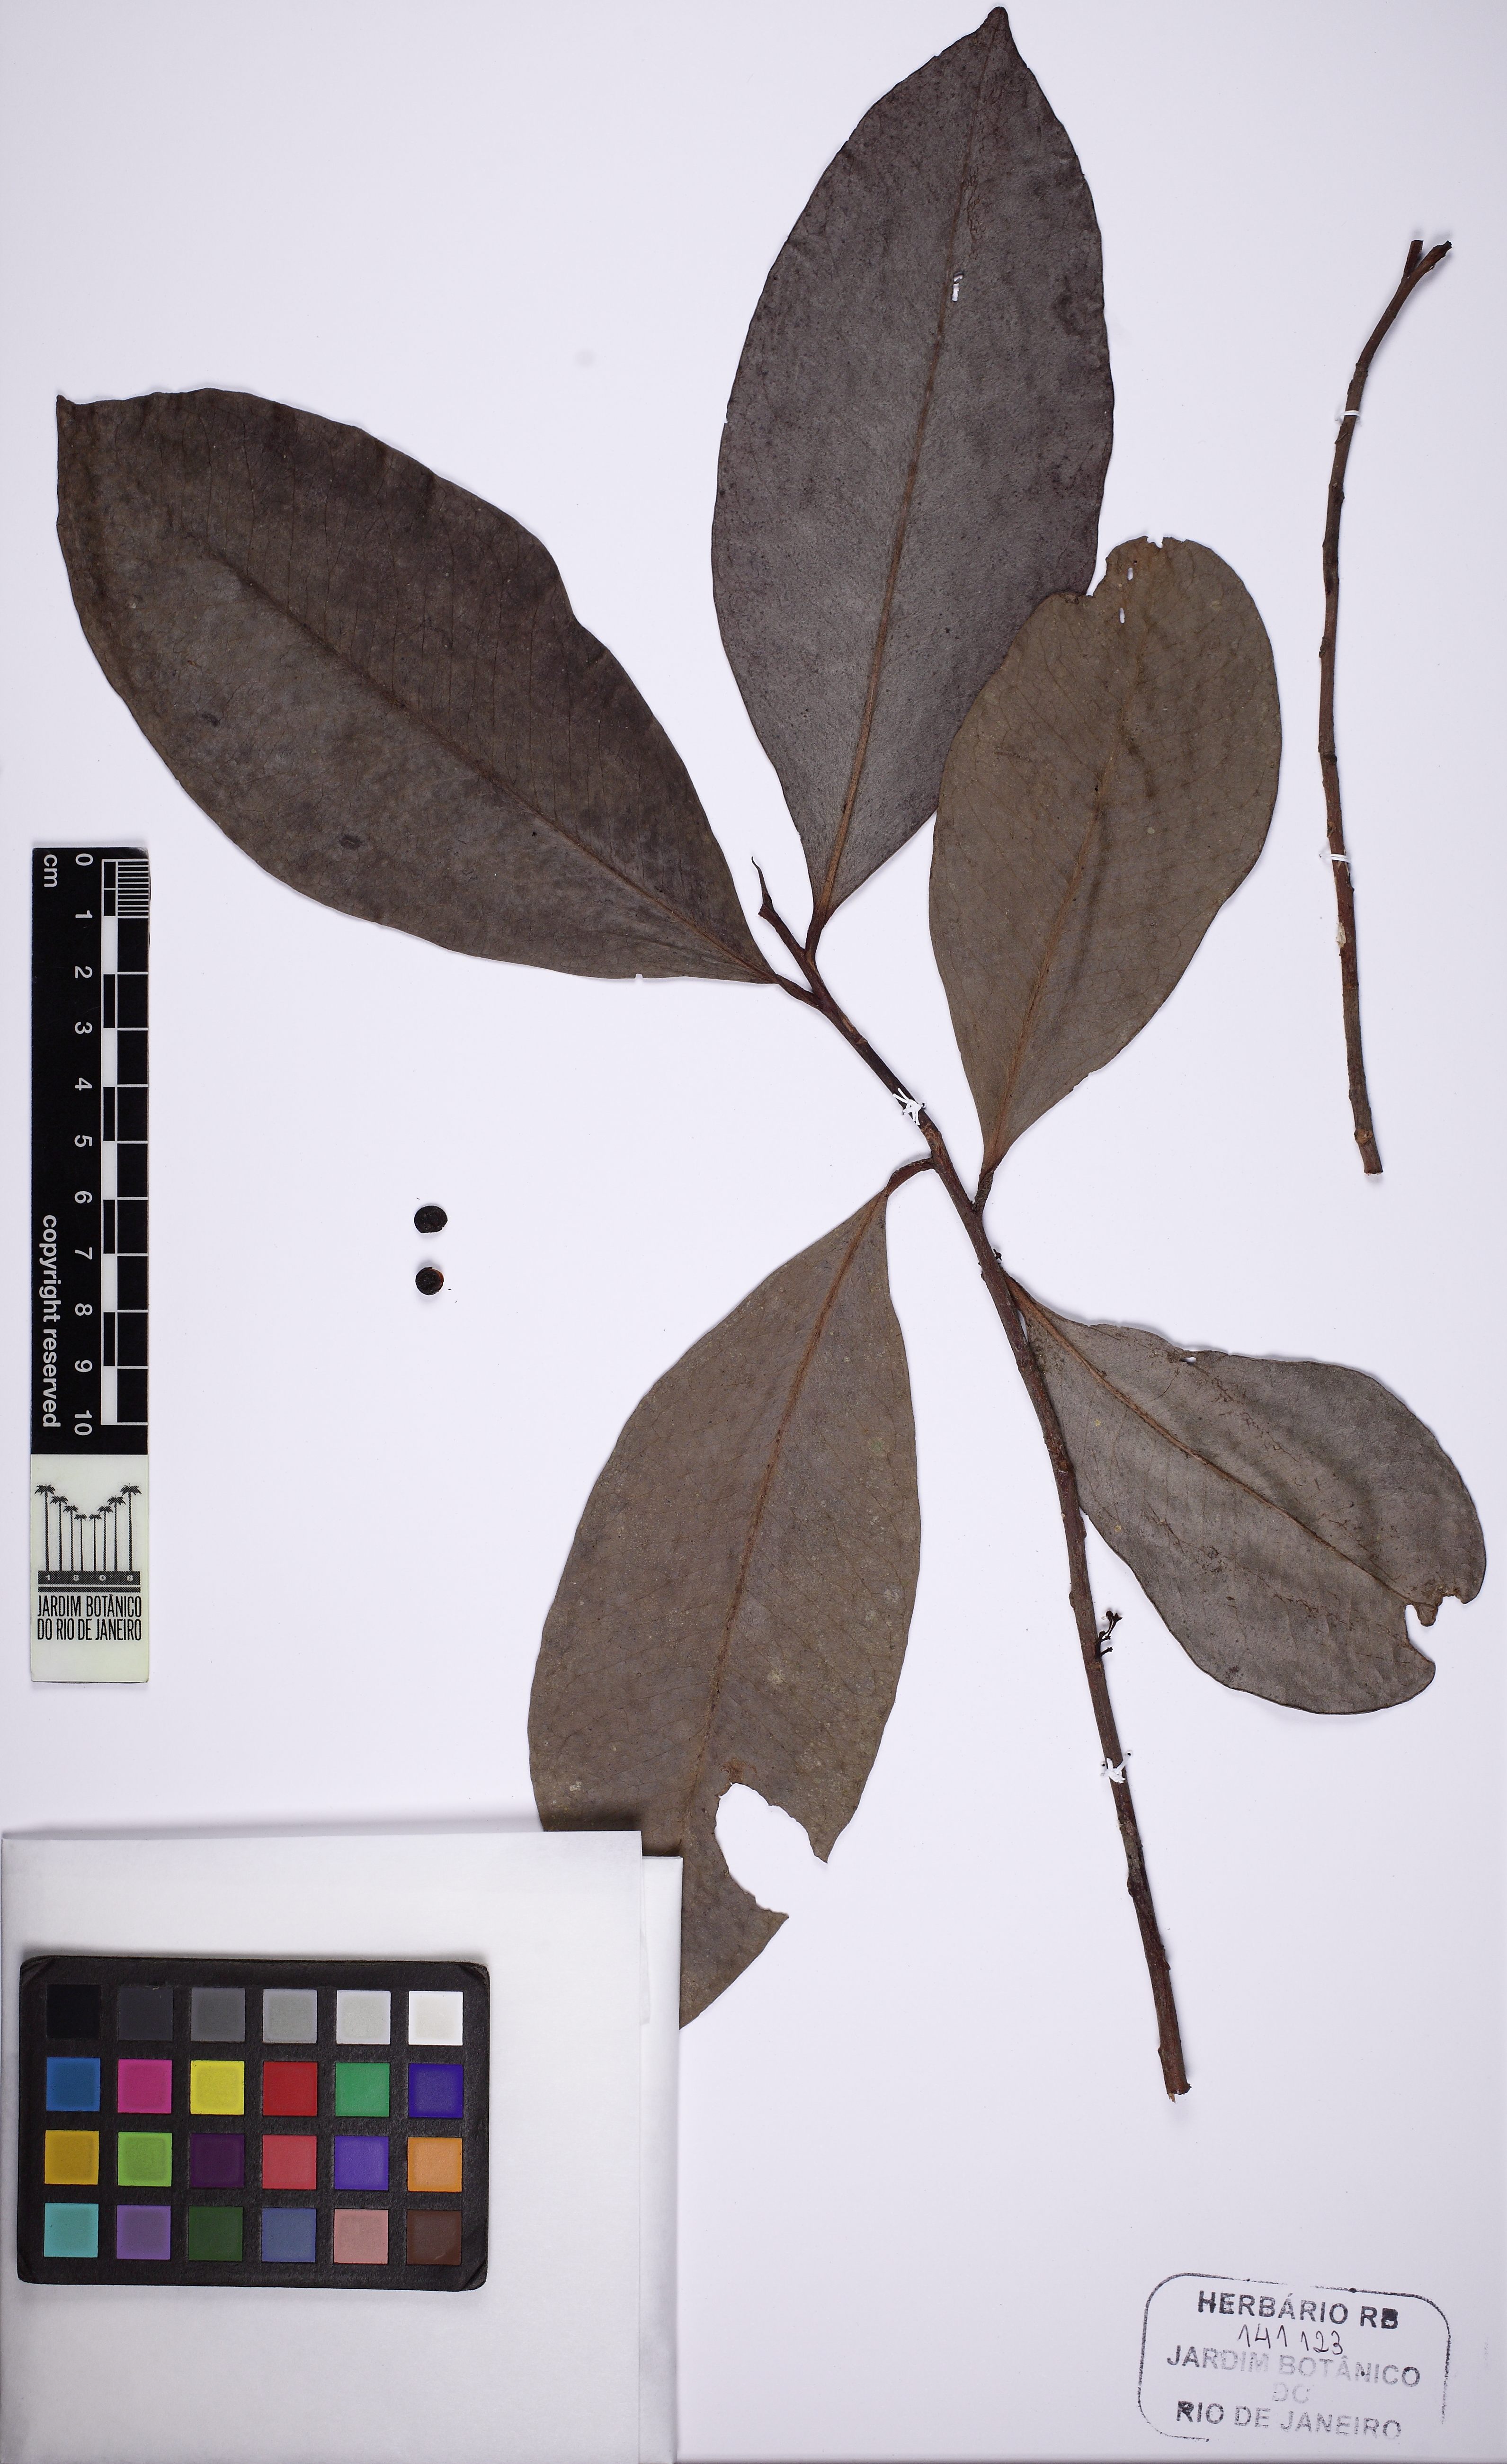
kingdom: Plantae
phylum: Tracheophyta
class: Magnoliopsida
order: Ericales
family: Primulaceae
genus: Stylogyne
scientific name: Stylogyne depauperata
